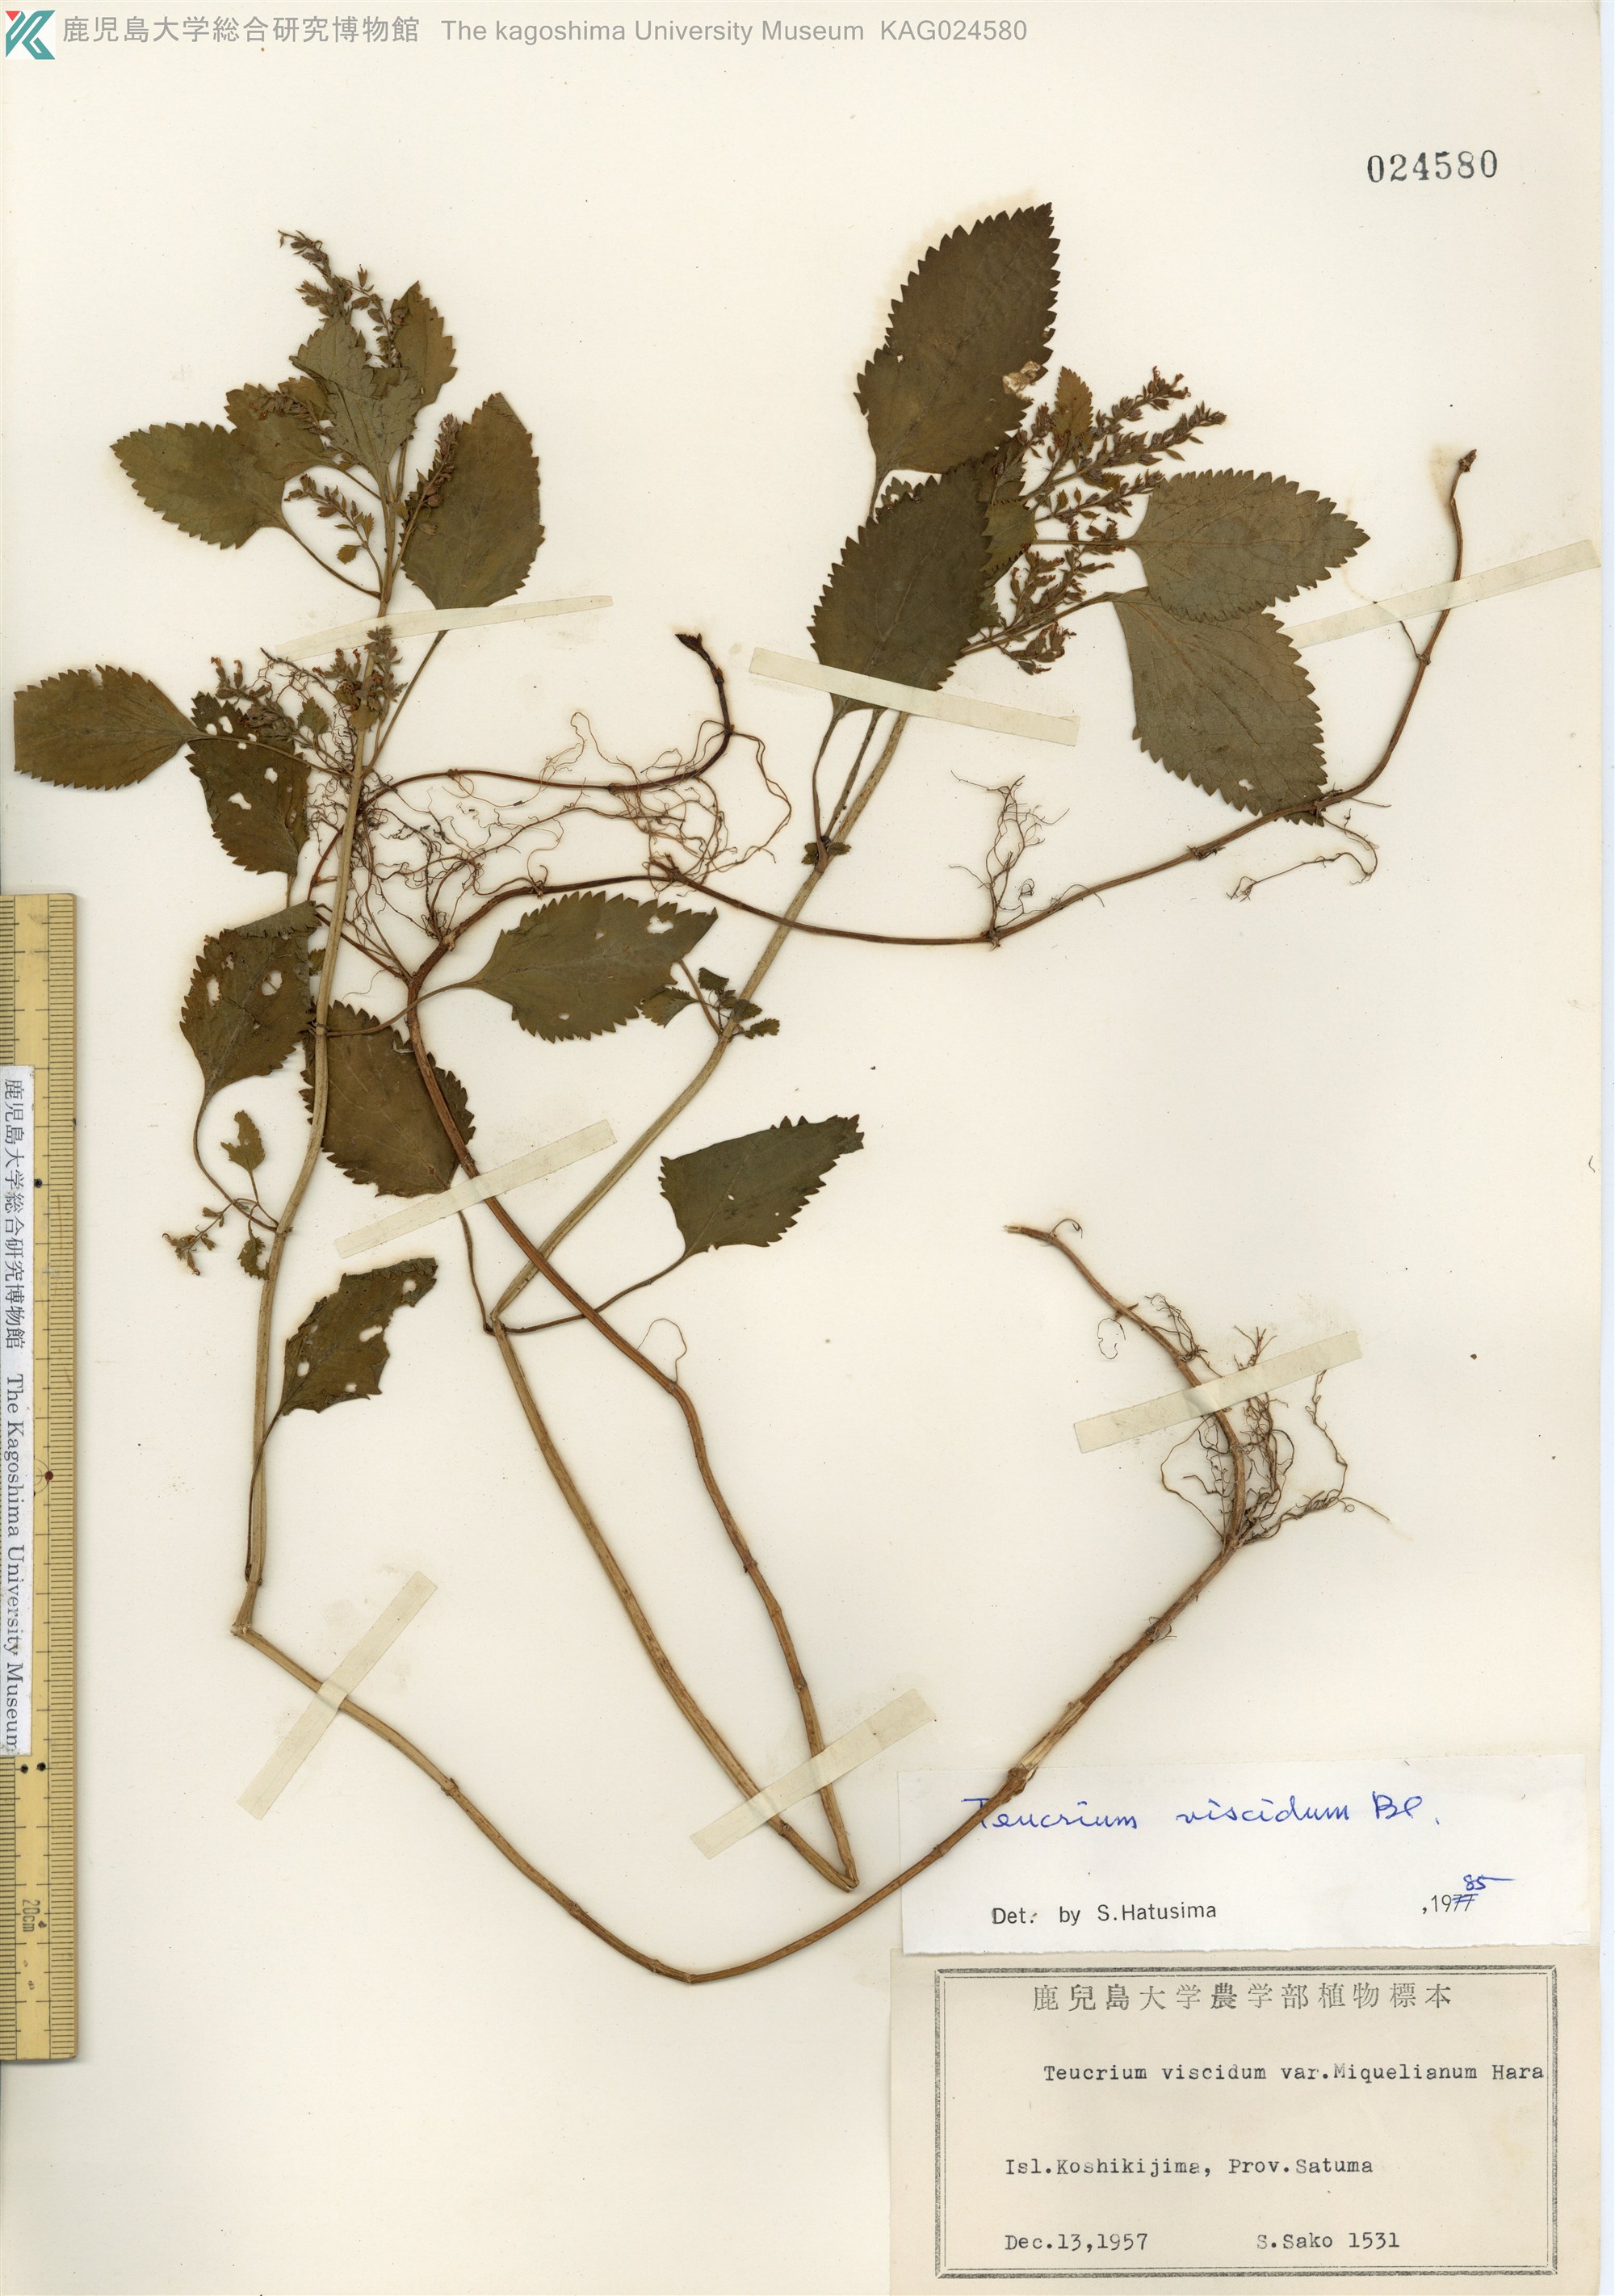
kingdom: Plantae
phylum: Tracheophyta
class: Magnoliopsida
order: Lamiales
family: Lamiaceae
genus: Teucrium
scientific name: Teucrium viscidum
